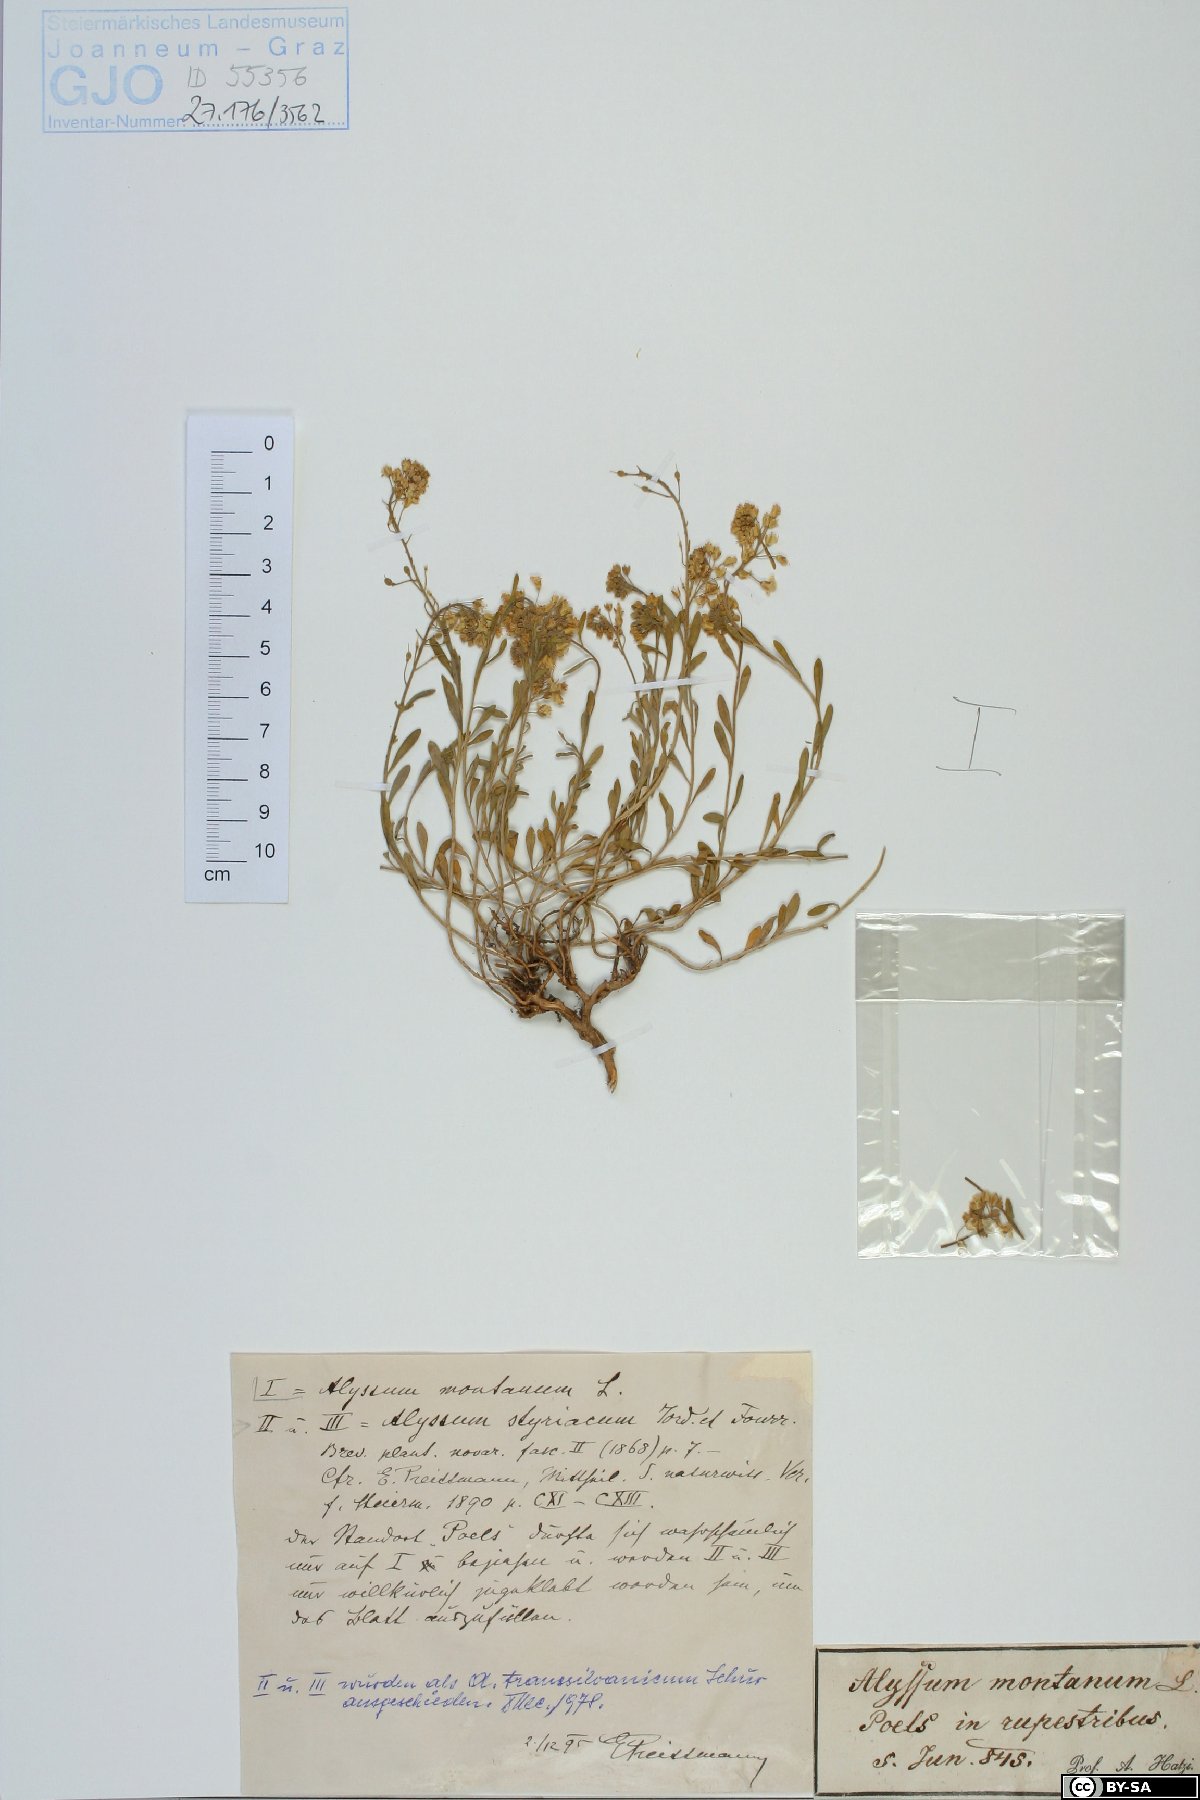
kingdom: Plantae
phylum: Tracheophyta
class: Magnoliopsida
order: Brassicales
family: Brassicaceae
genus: Alyssum
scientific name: Alyssum montanum
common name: Mountain alison
